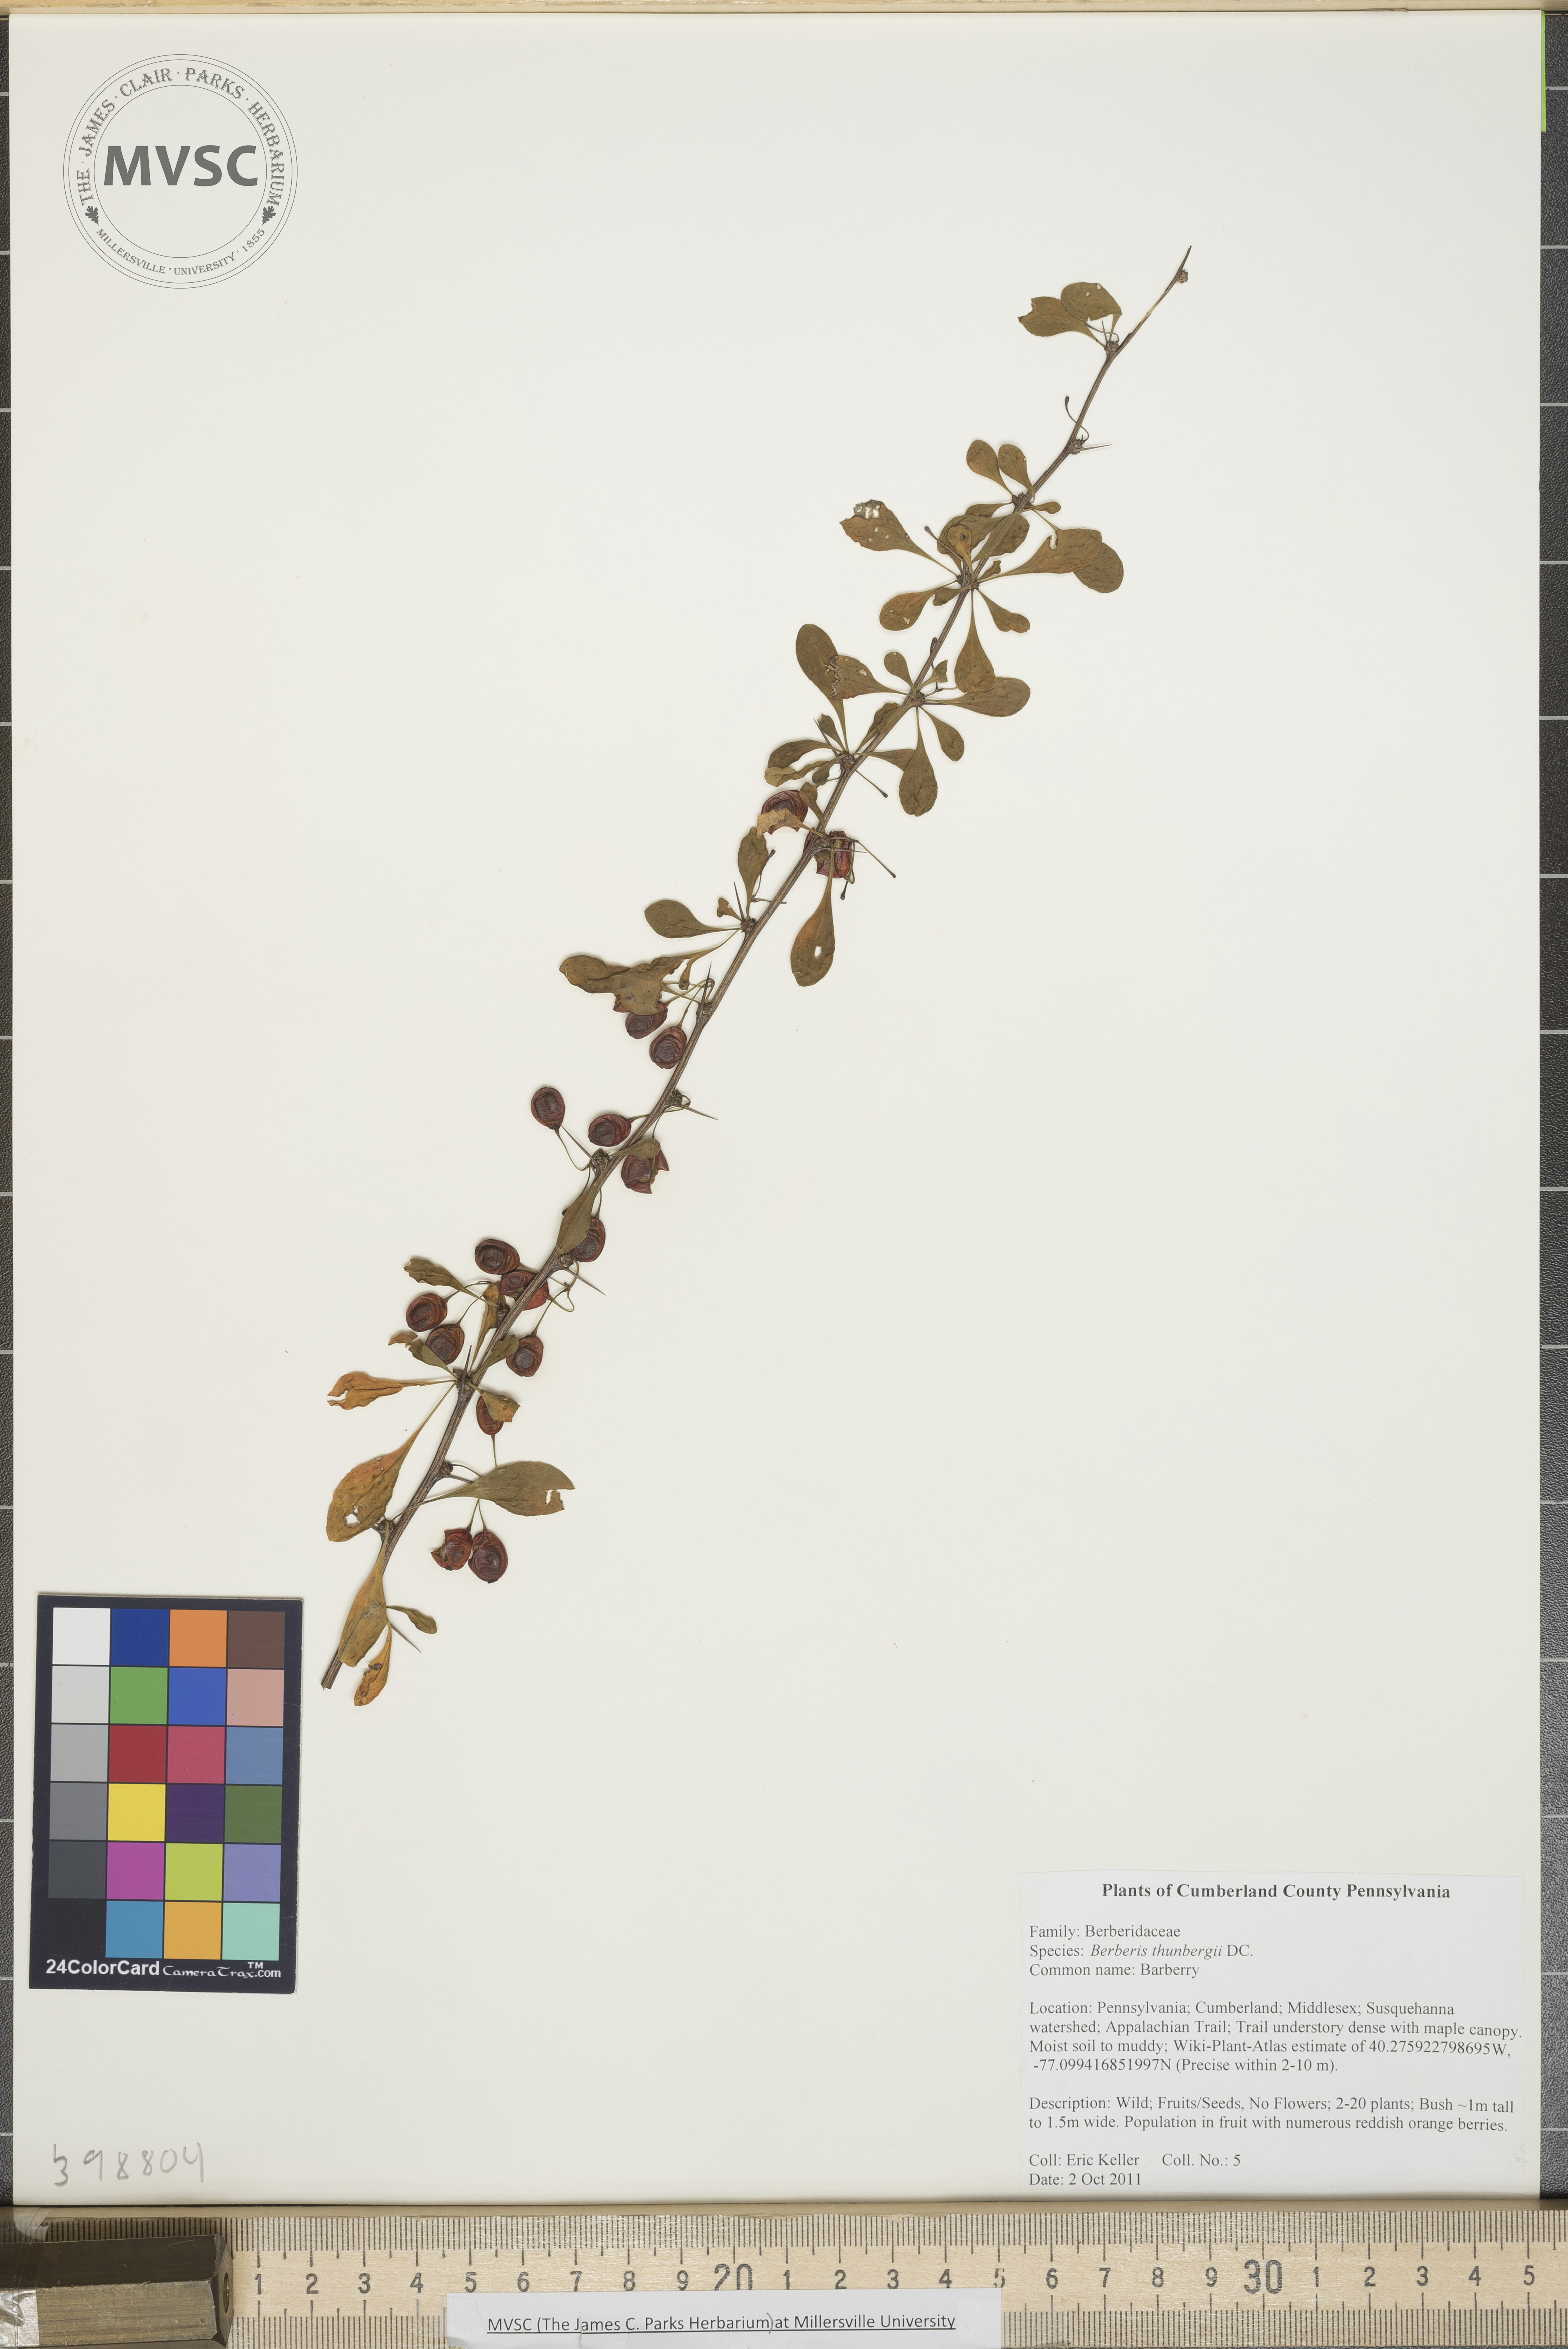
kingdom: Plantae
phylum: Tracheophyta
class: Magnoliopsida
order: Ranunculales
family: Berberidaceae
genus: Berberis
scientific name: Berberis thunbergii
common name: Japanese barberry
